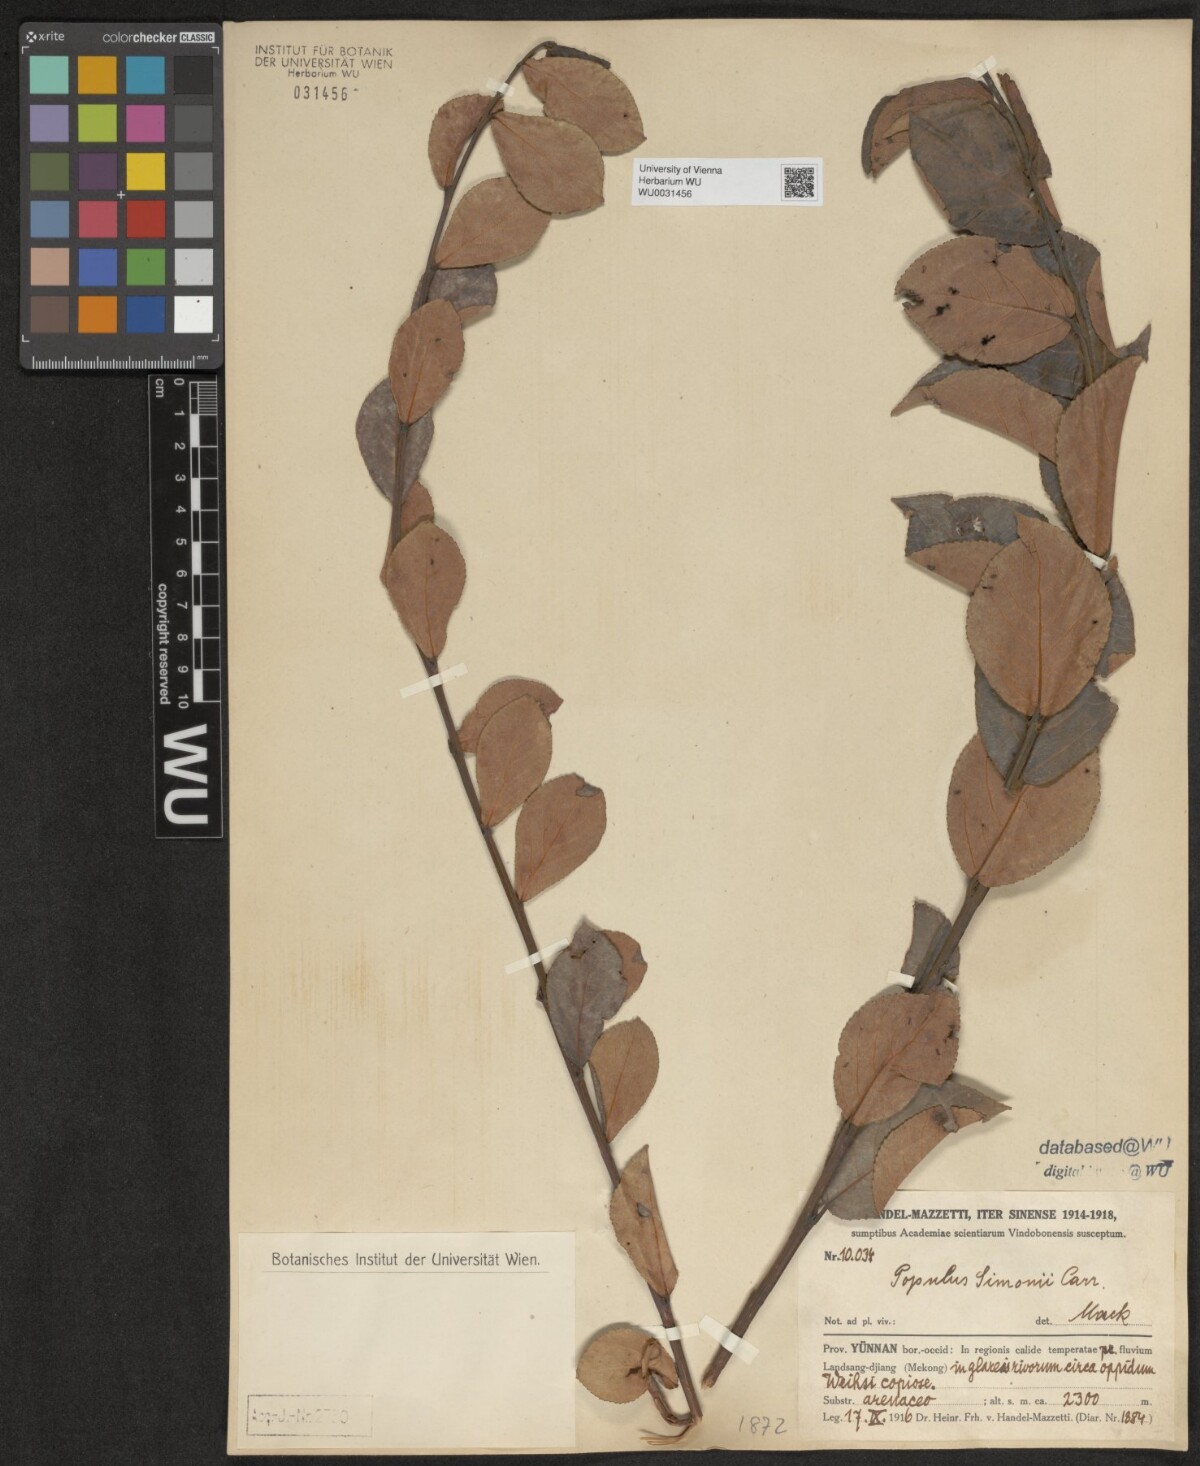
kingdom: Plantae
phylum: Tracheophyta
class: Magnoliopsida
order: Malpighiales
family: Salicaceae
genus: Populus
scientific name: Populus simonii
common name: Simon poplar
